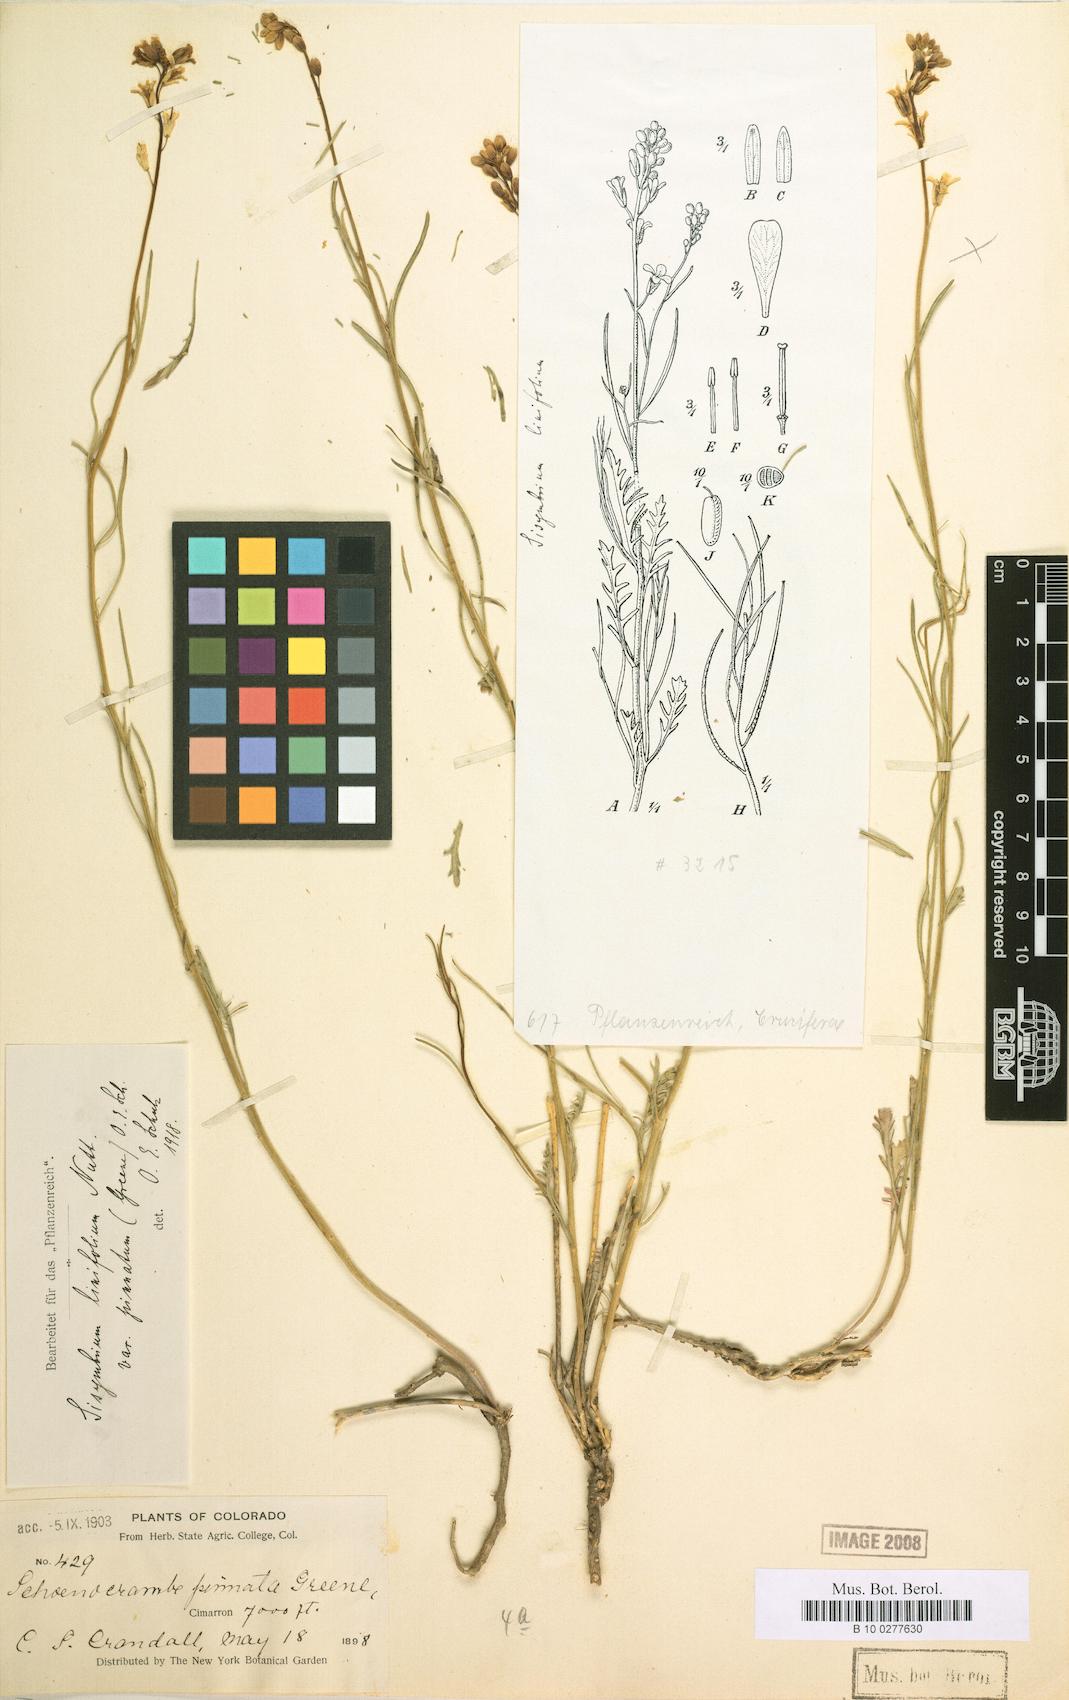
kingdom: Plantae
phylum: Tracheophyta
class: Magnoliopsida
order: Brassicales
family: Brassicaceae
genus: Sisymbrium
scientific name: Sisymbrium linifolium
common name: Salmon river plains mustard
